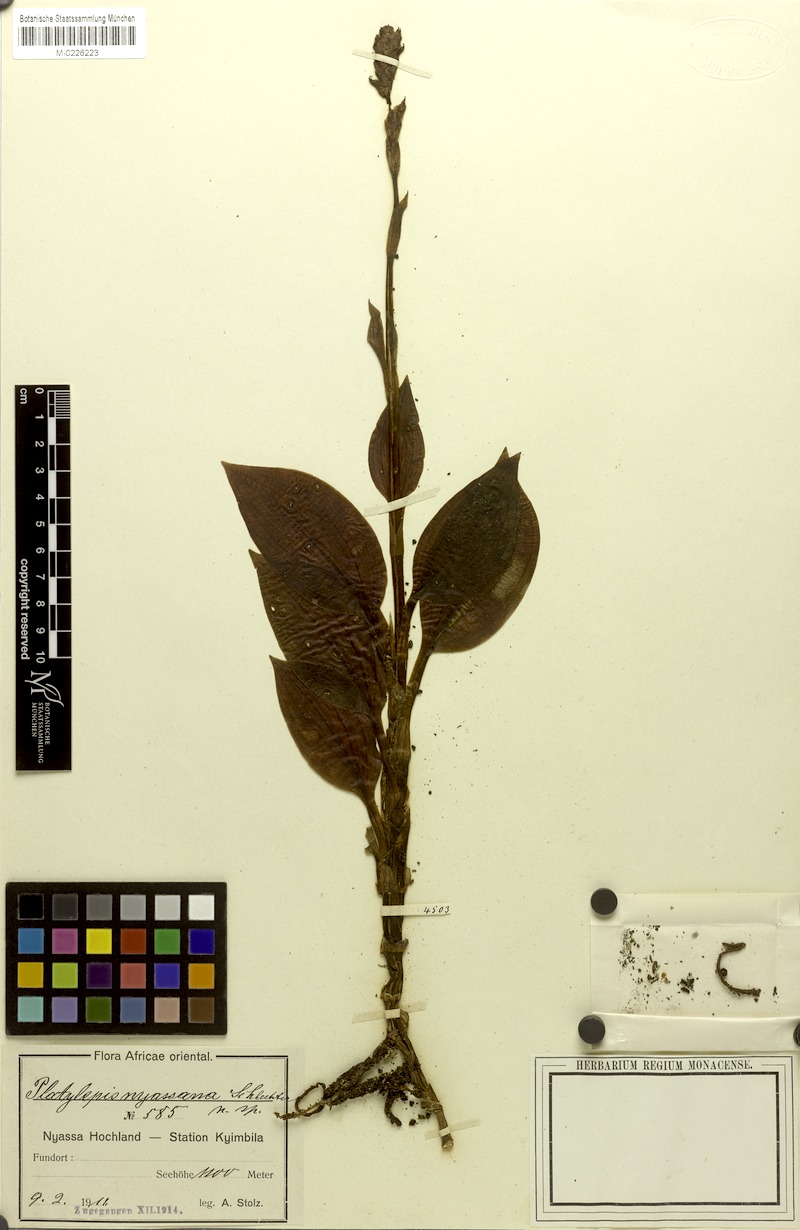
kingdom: Plantae
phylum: Tracheophyta
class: Liliopsida
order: Asparagales
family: Orchidaceae
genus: Platylepis
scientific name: Platylepis glandulosa
